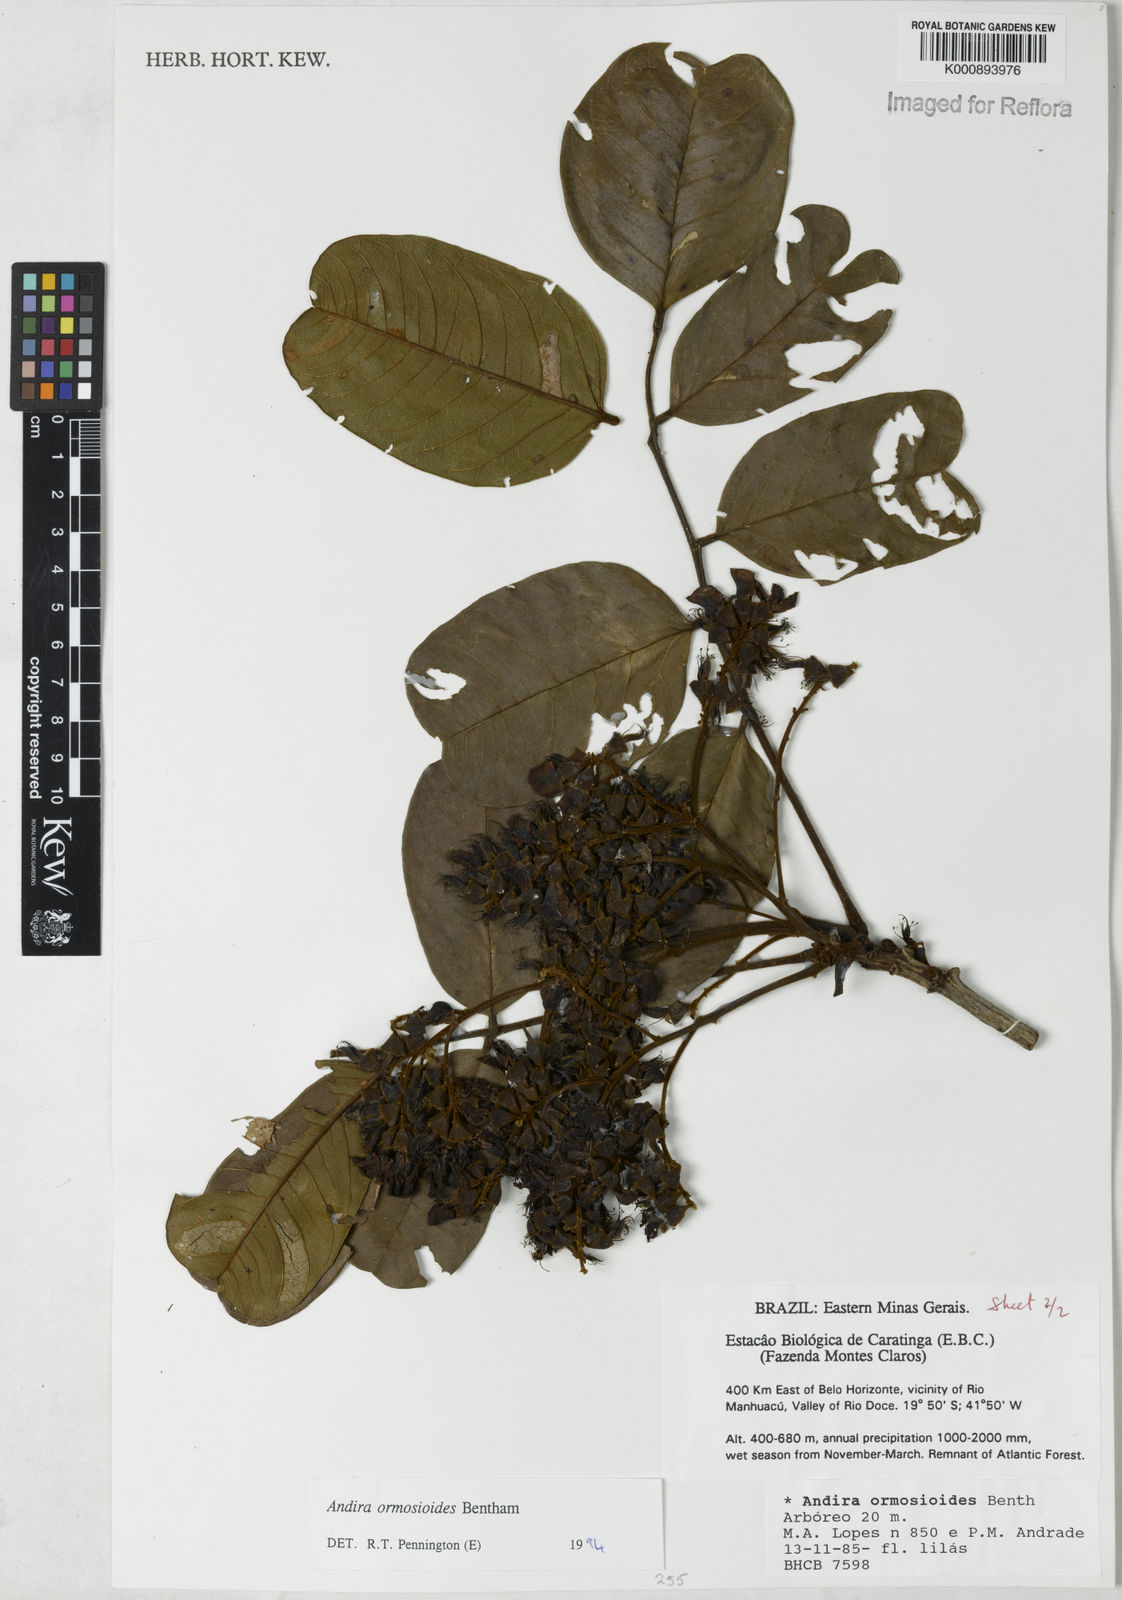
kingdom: Plantae
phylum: Tracheophyta
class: Magnoliopsida
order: Fabales
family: Fabaceae
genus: Andira
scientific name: Andira ormosioides
